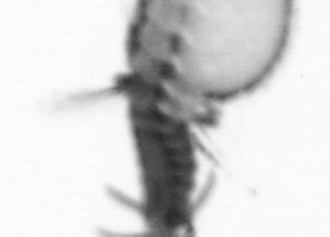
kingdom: Animalia
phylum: Annelida
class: Polychaeta
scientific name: Polychaeta
